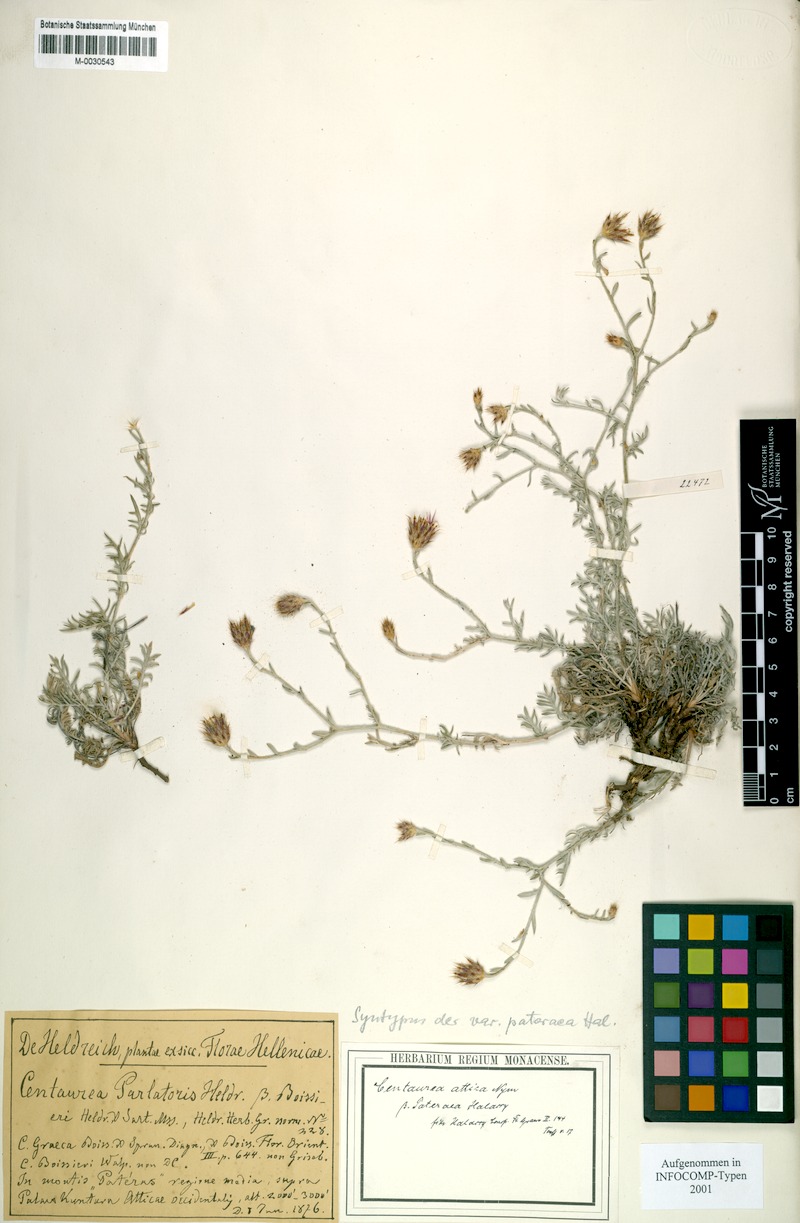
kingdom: Plantae
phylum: Tracheophyta
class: Magnoliopsida
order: Asterales
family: Asteraceae
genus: Centaurea
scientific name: Centaurea subsericans
